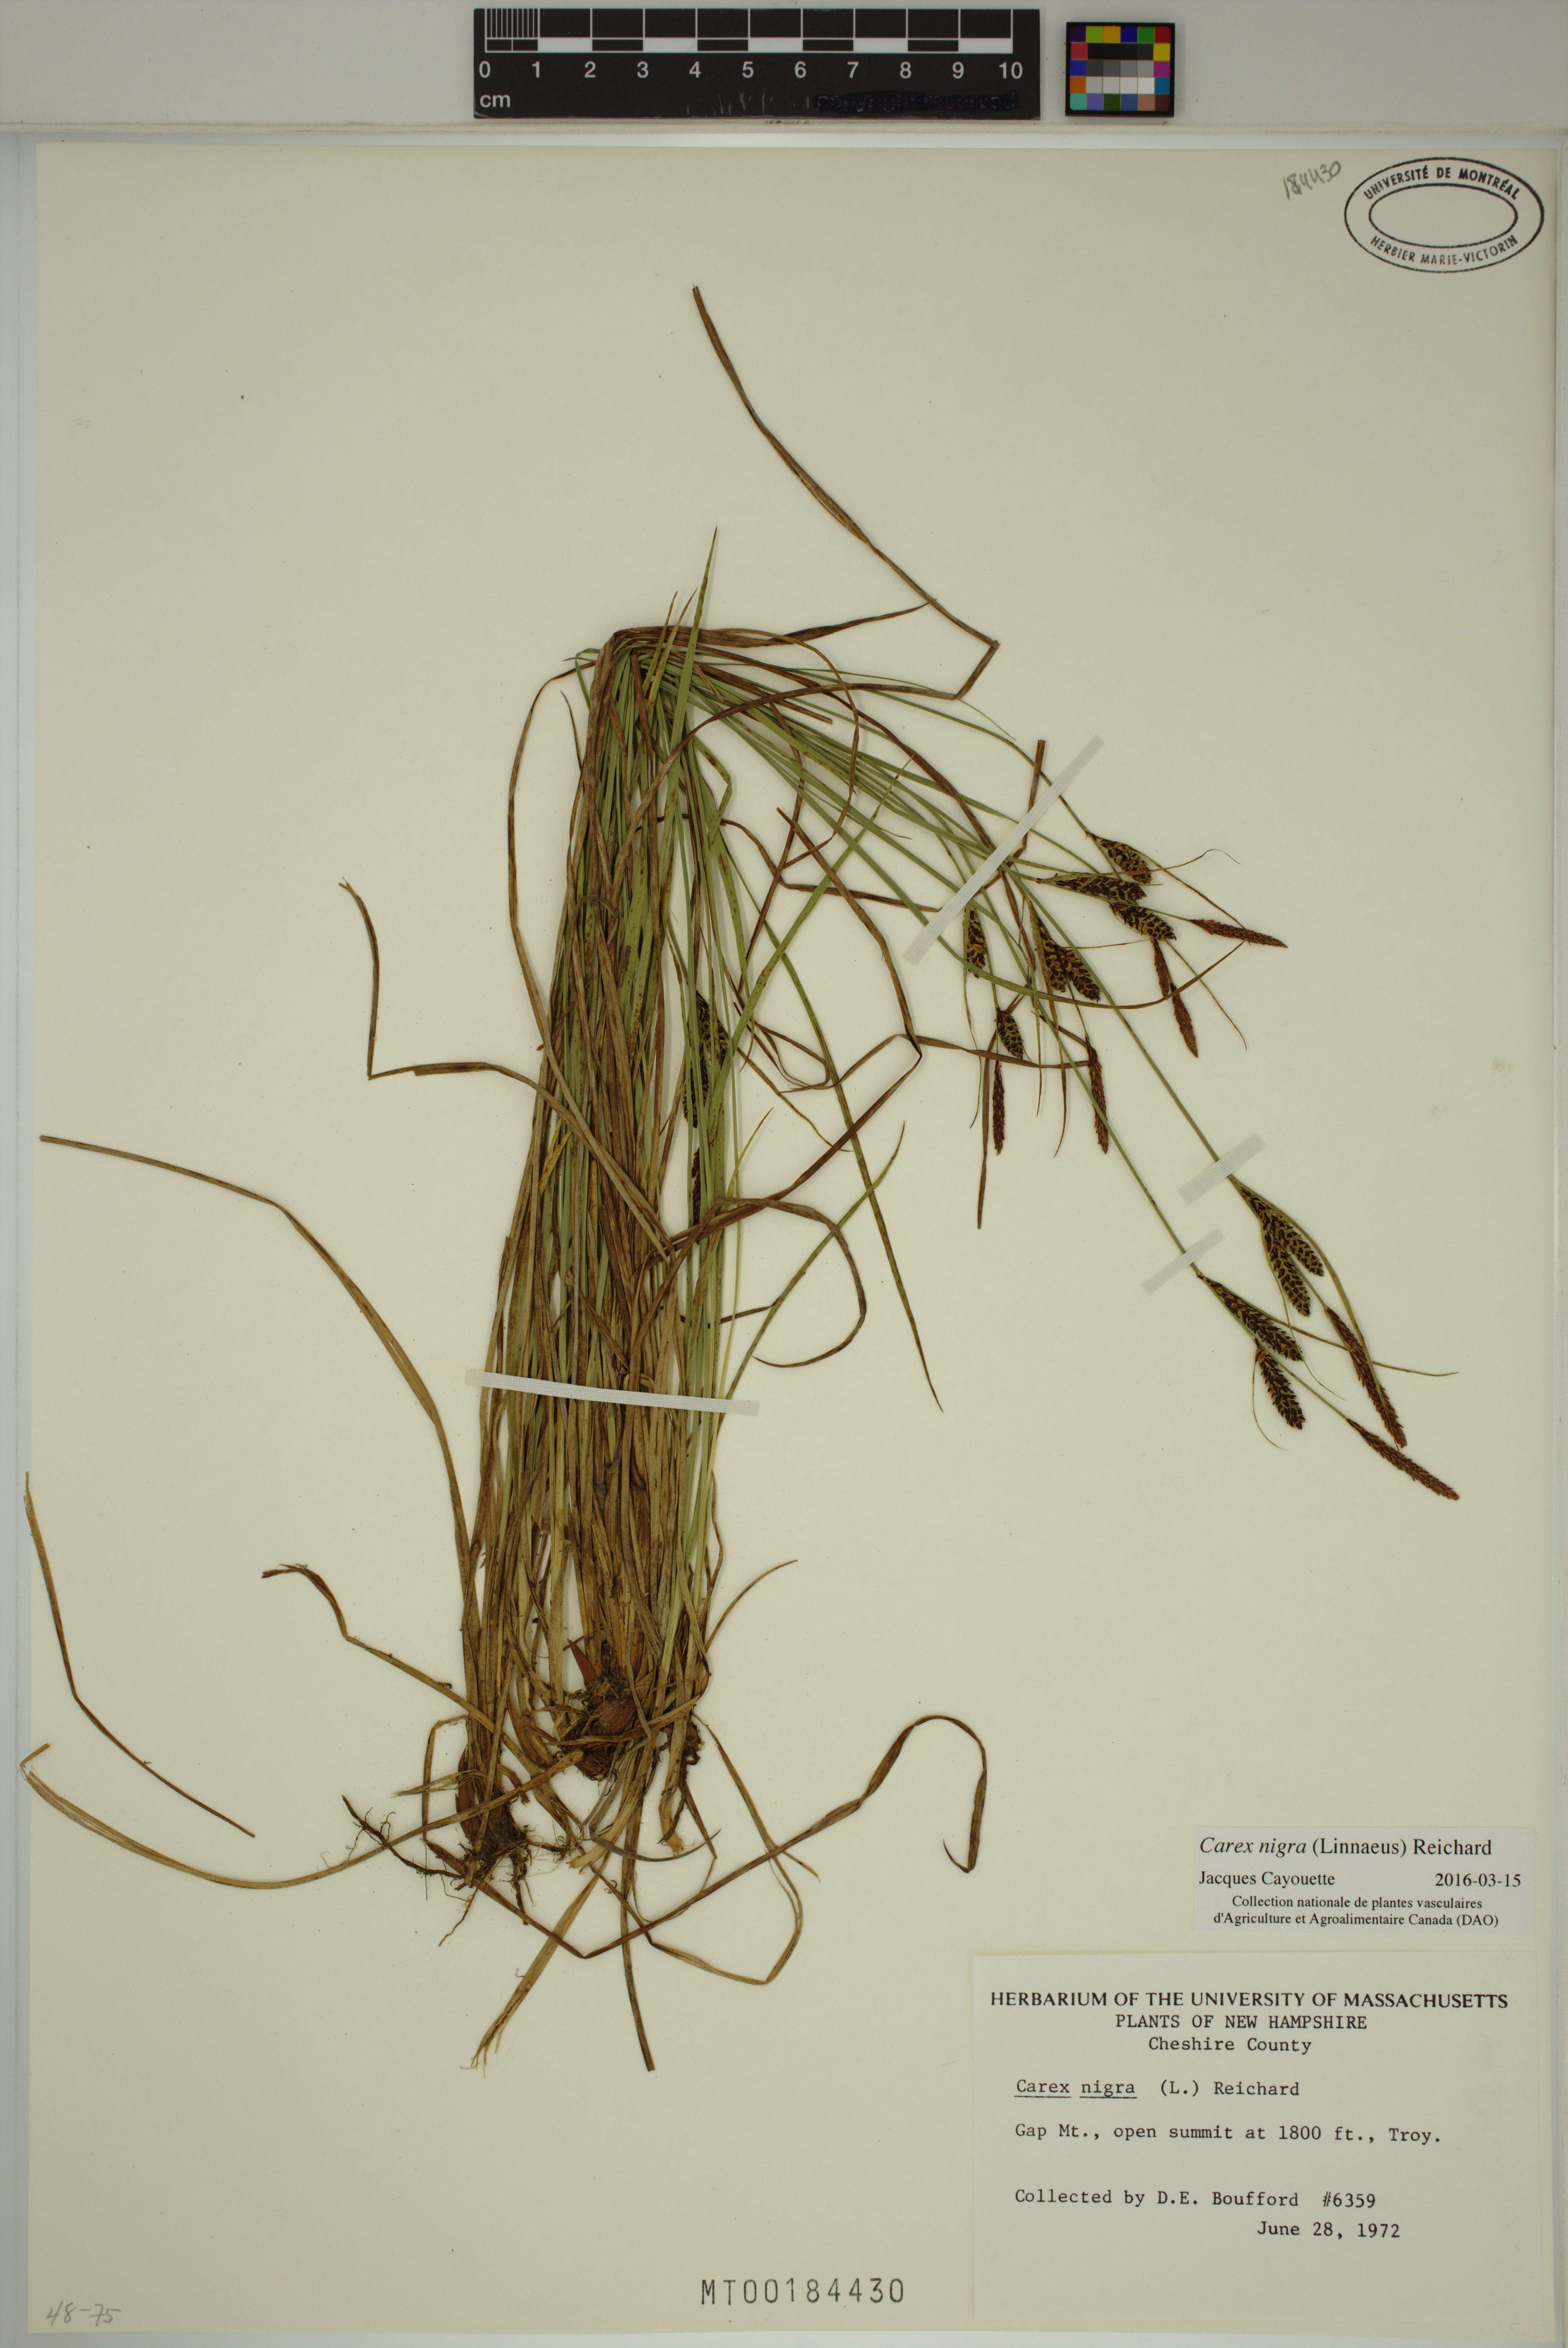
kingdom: Plantae
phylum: Tracheophyta
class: Liliopsida
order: Poales
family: Cyperaceae
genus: Carex
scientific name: Carex nigra
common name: Common sedge
